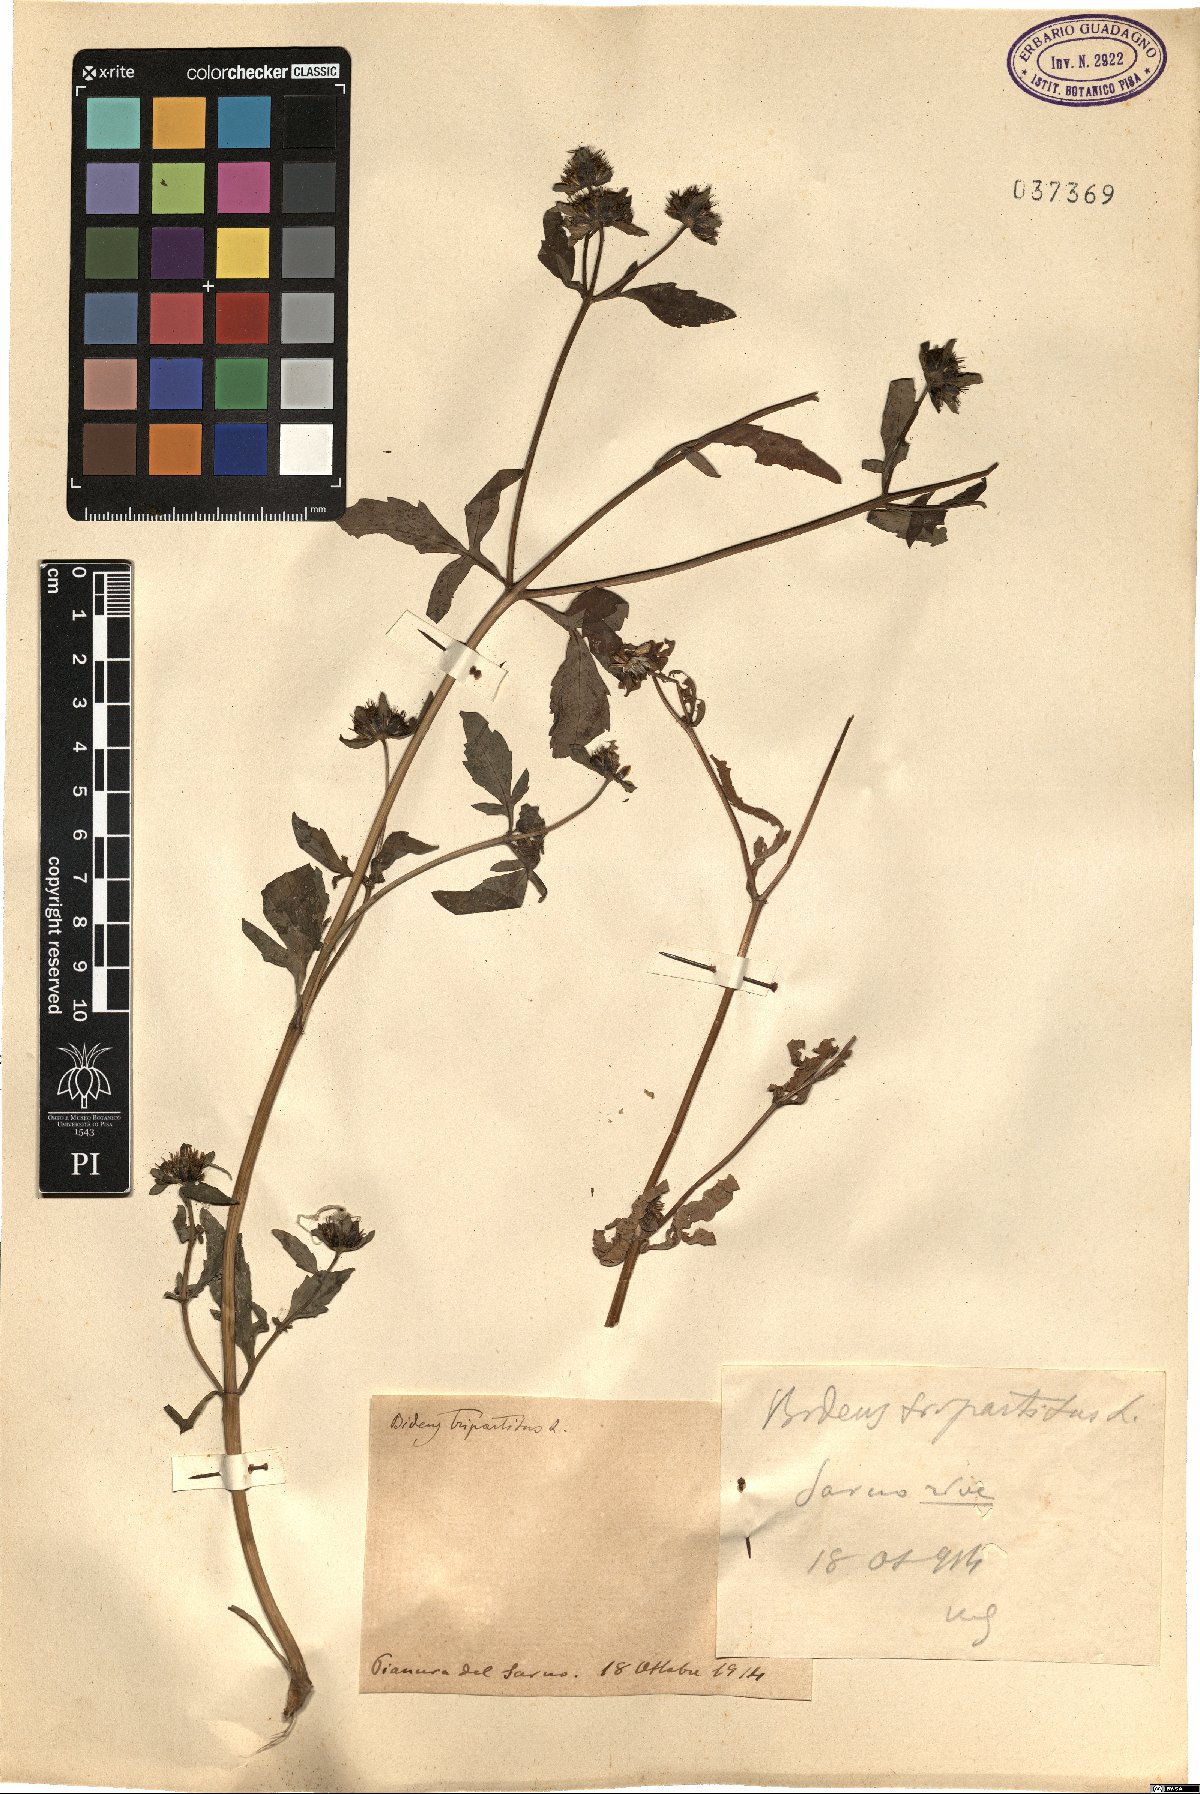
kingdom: Plantae
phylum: Tracheophyta
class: Magnoliopsida
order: Asterales
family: Asteraceae
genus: Bidens
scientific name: Bidens tripartita
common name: Trifid bur-marigold
